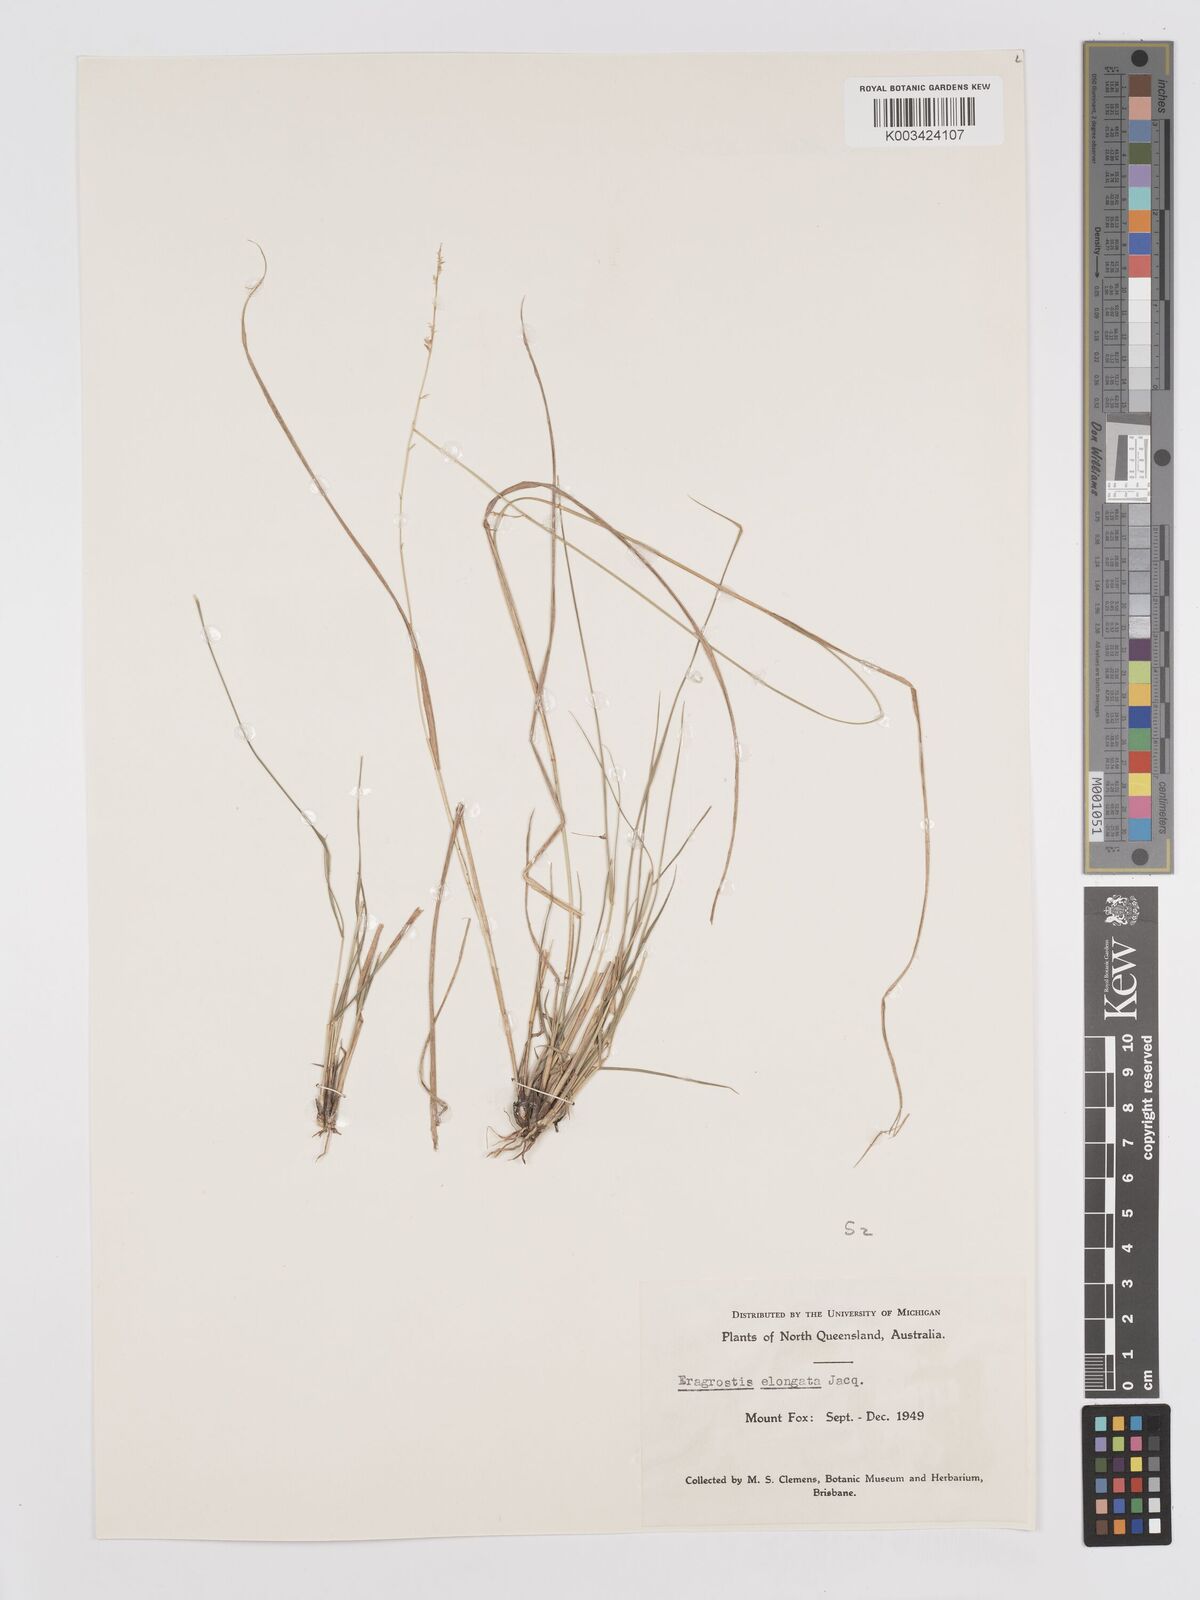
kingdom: Plantae
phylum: Tracheophyta
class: Liliopsida
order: Poales
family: Poaceae
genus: Eragrostis
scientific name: Eragrostis brownii
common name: Lovegrass
